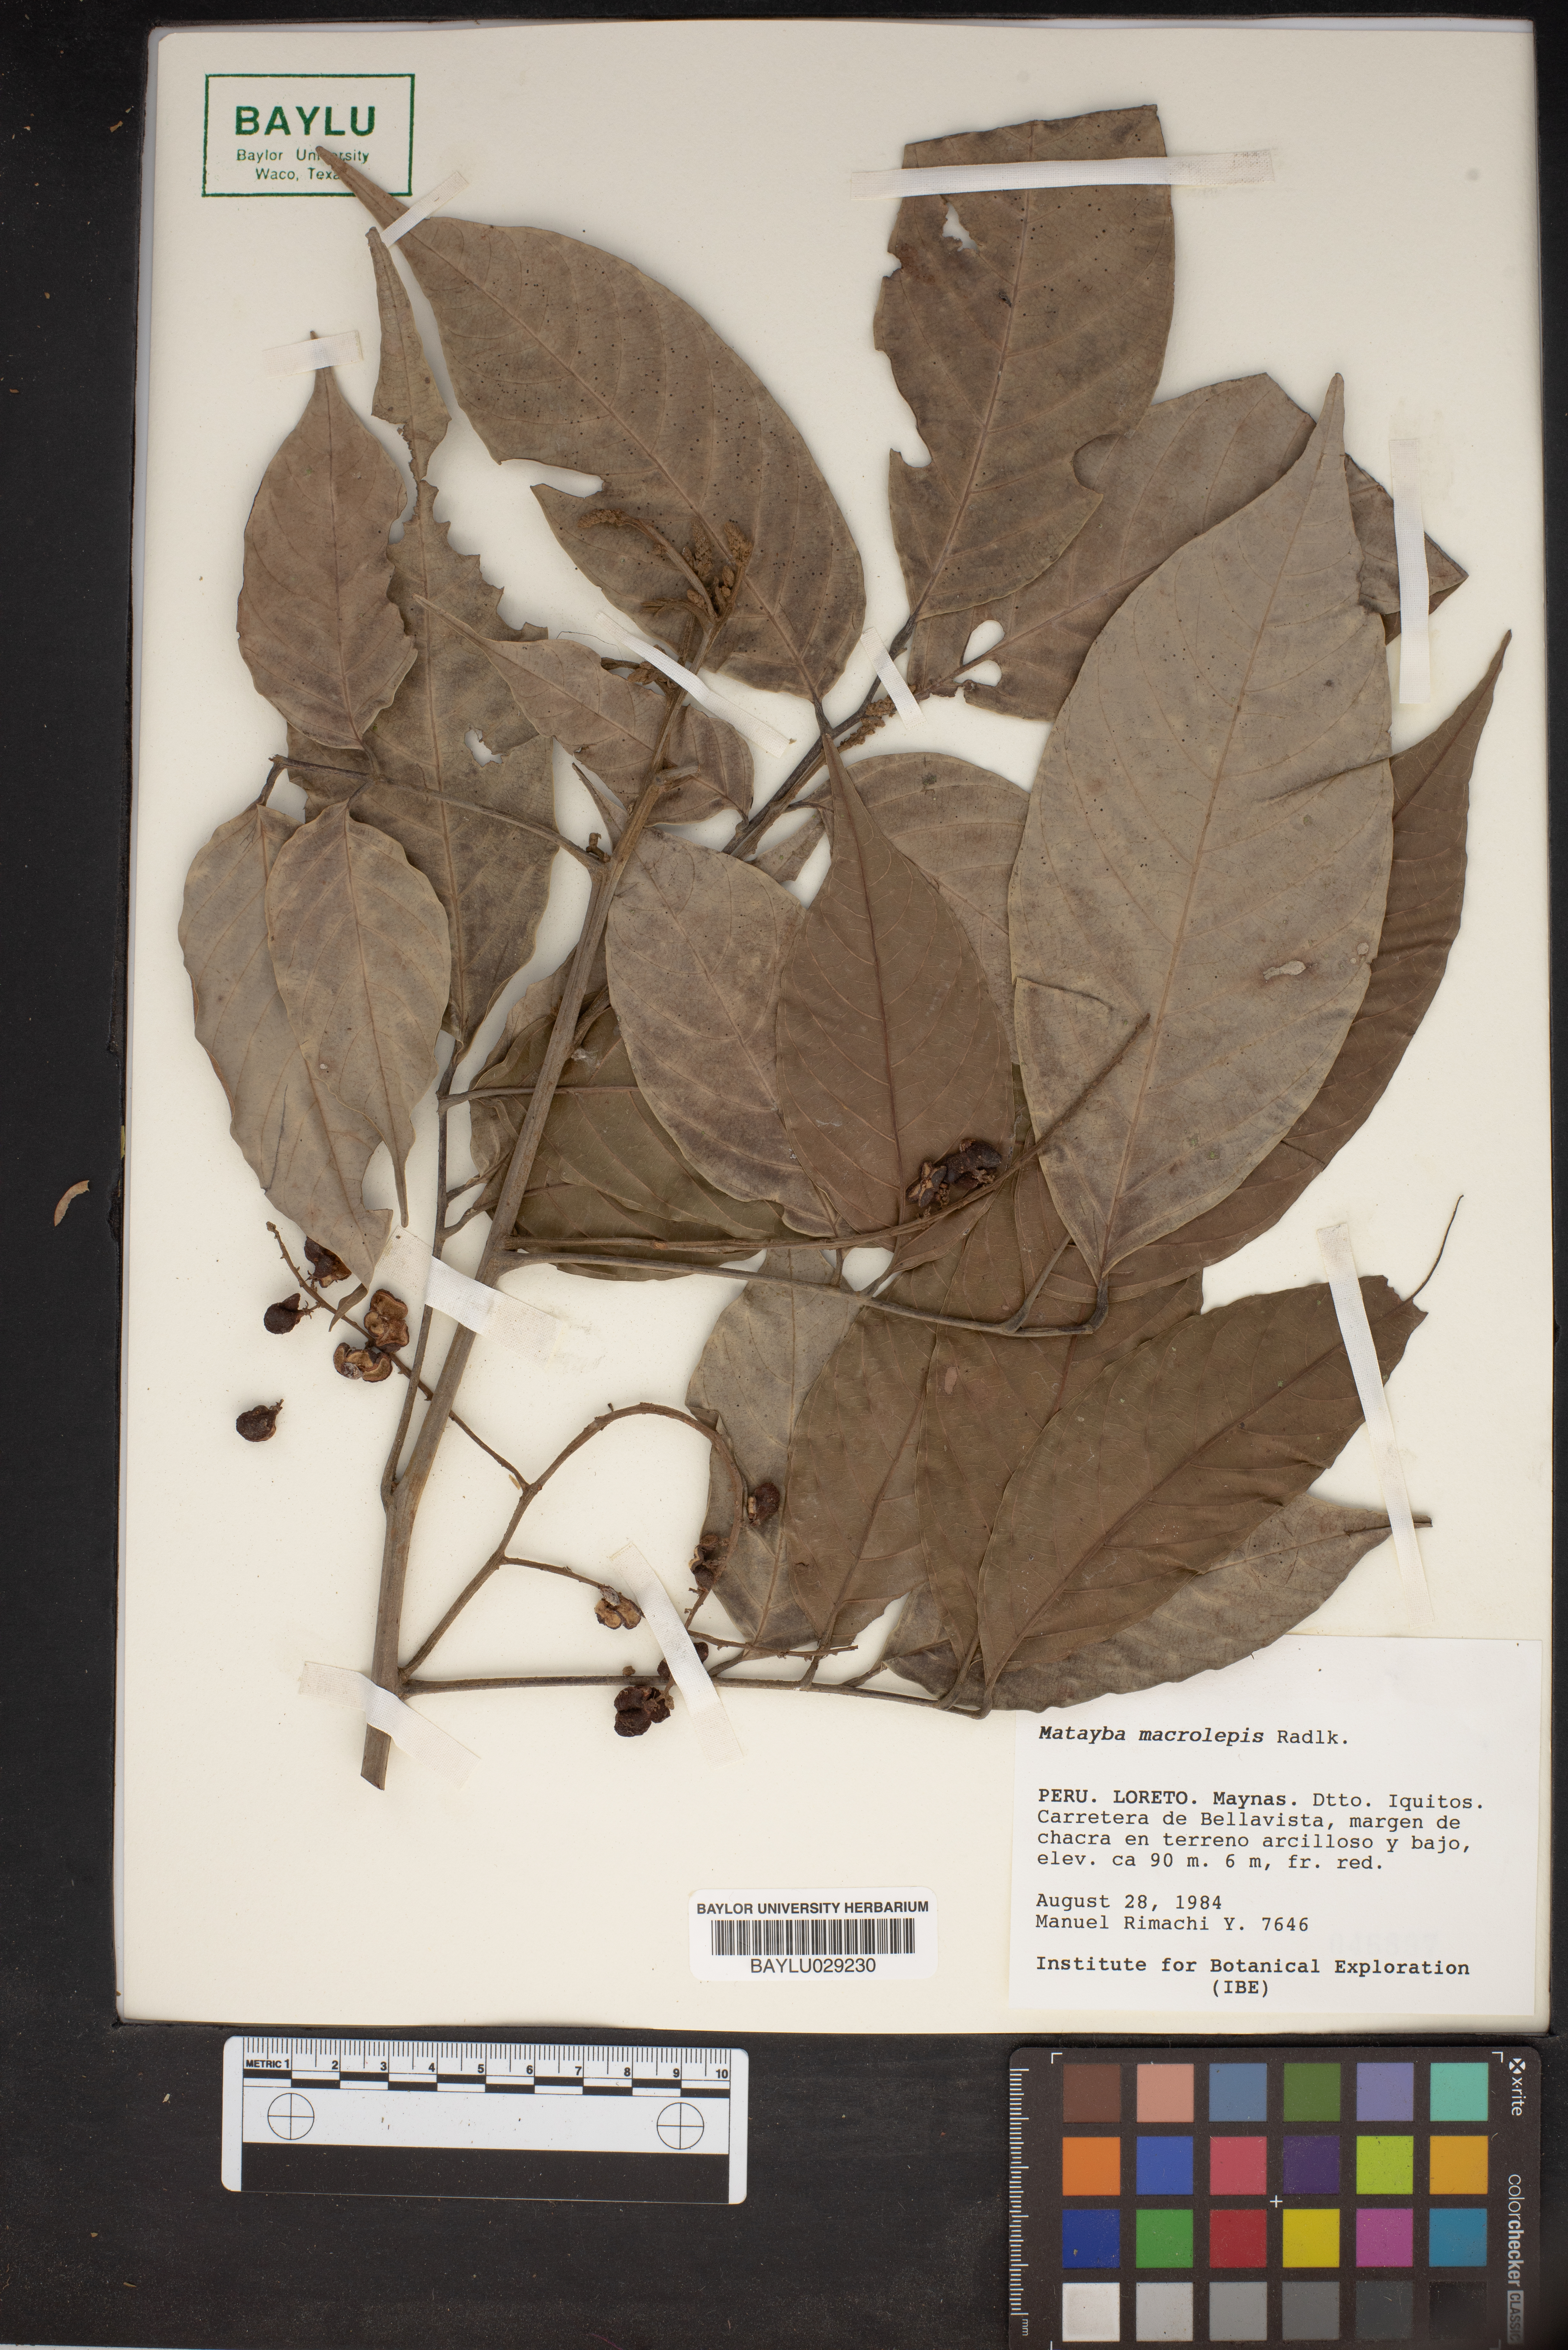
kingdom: Plantae
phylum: Tracheophyta
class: Magnoliopsida
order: Sapindales
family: Sapindaceae
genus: Cupania
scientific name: Cupania macrostylis
